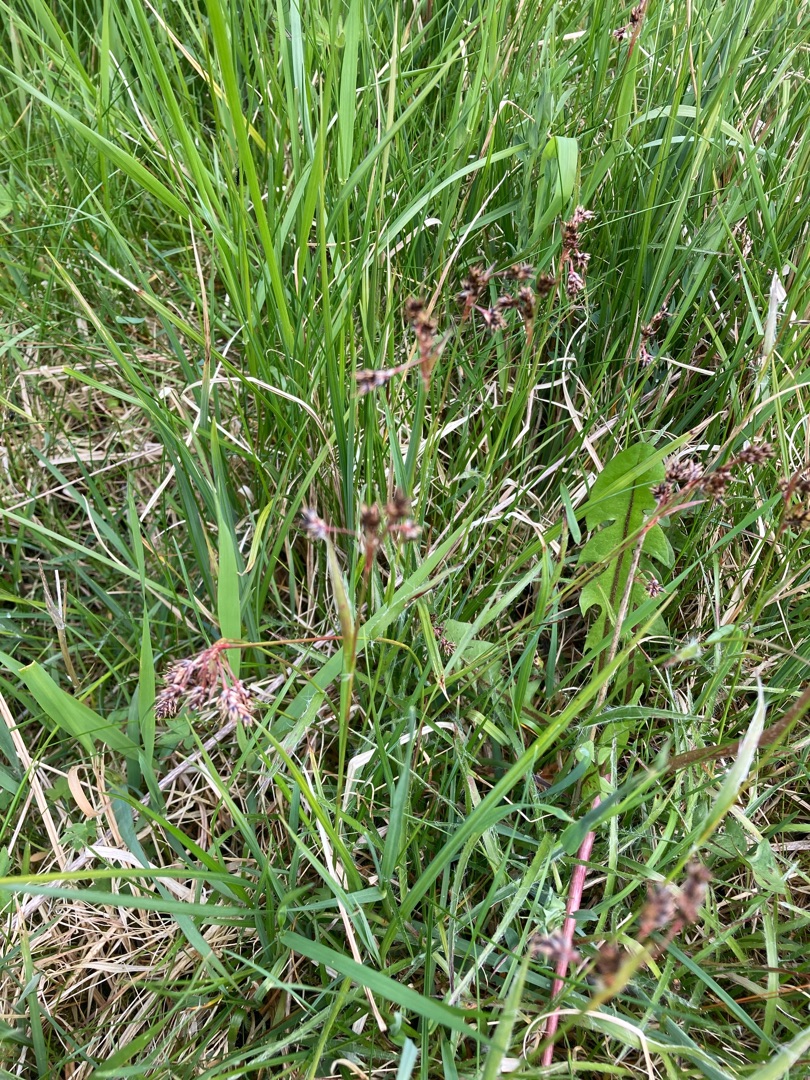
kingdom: Plantae
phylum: Tracheophyta
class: Liliopsida
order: Poales
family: Juncaceae
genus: Luzula
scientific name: Luzula campestris
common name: Mark-frytle
